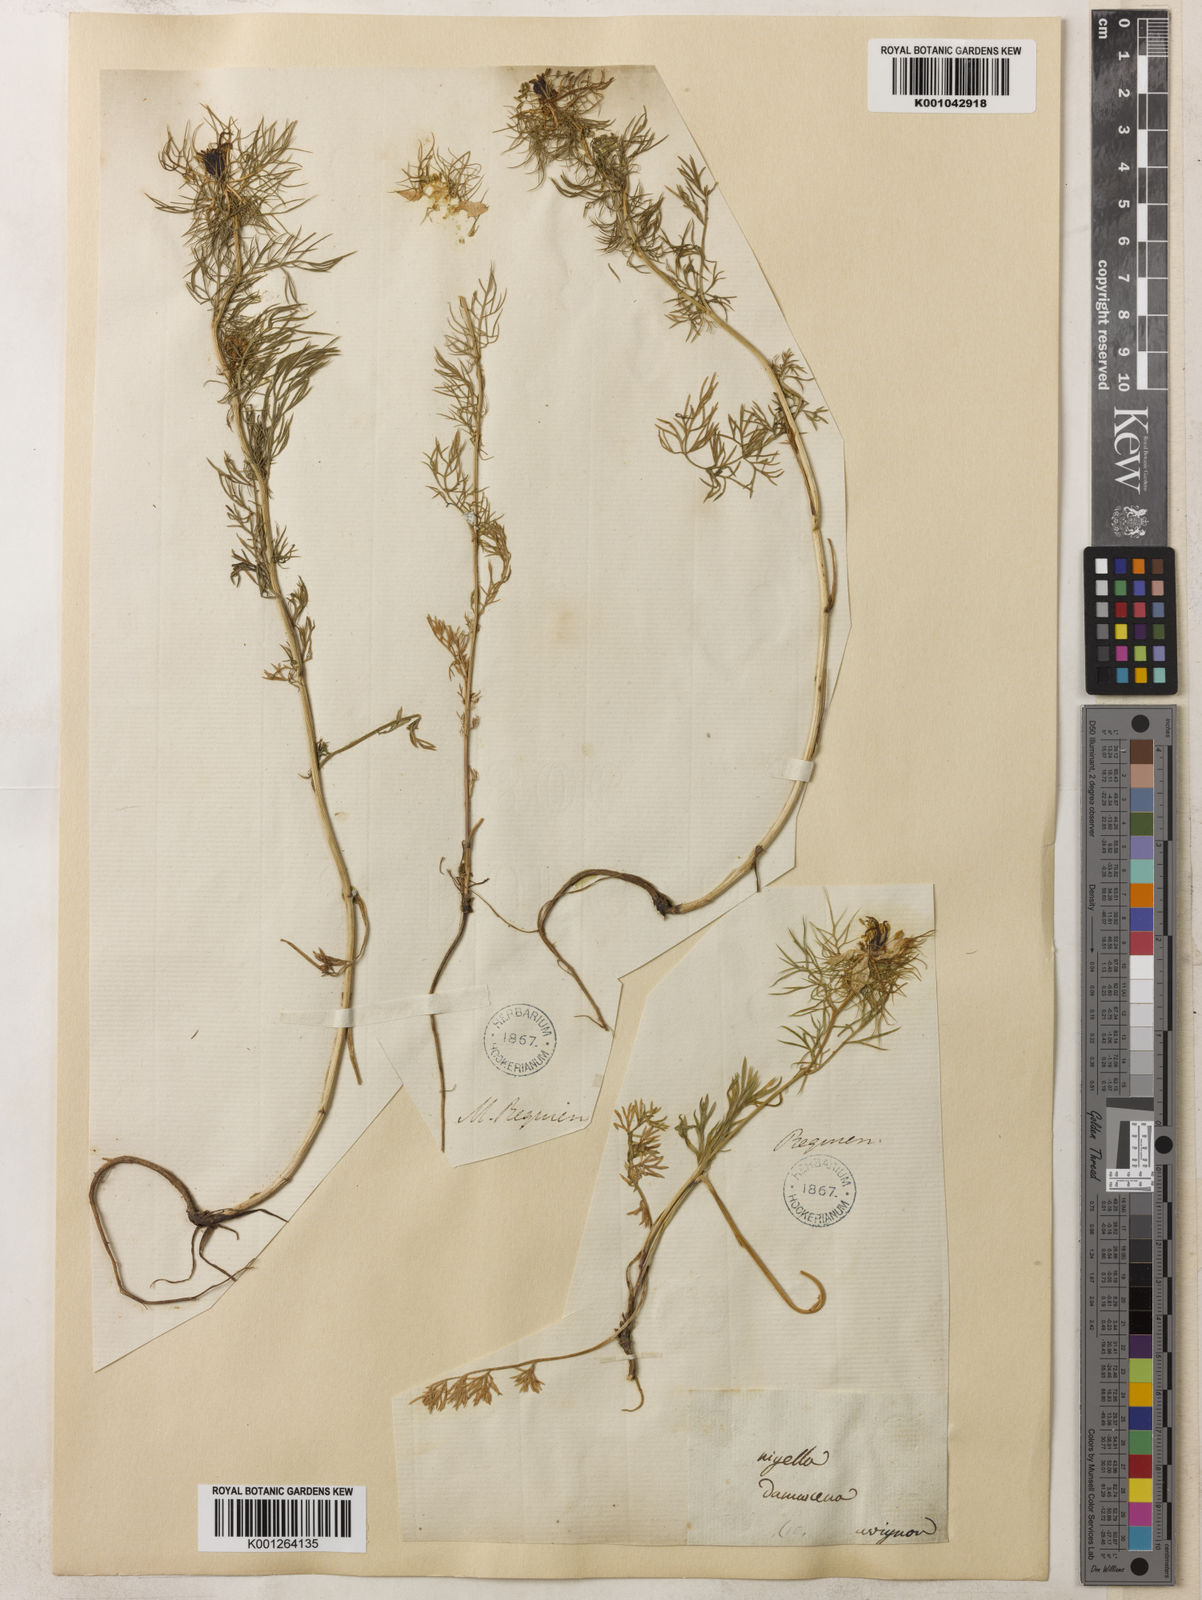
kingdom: Plantae
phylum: Tracheophyta
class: Magnoliopsida
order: Ranunculales
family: Ranunculaceae
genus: Nigella
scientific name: Nigella damascena
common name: Love-in-a-mist
